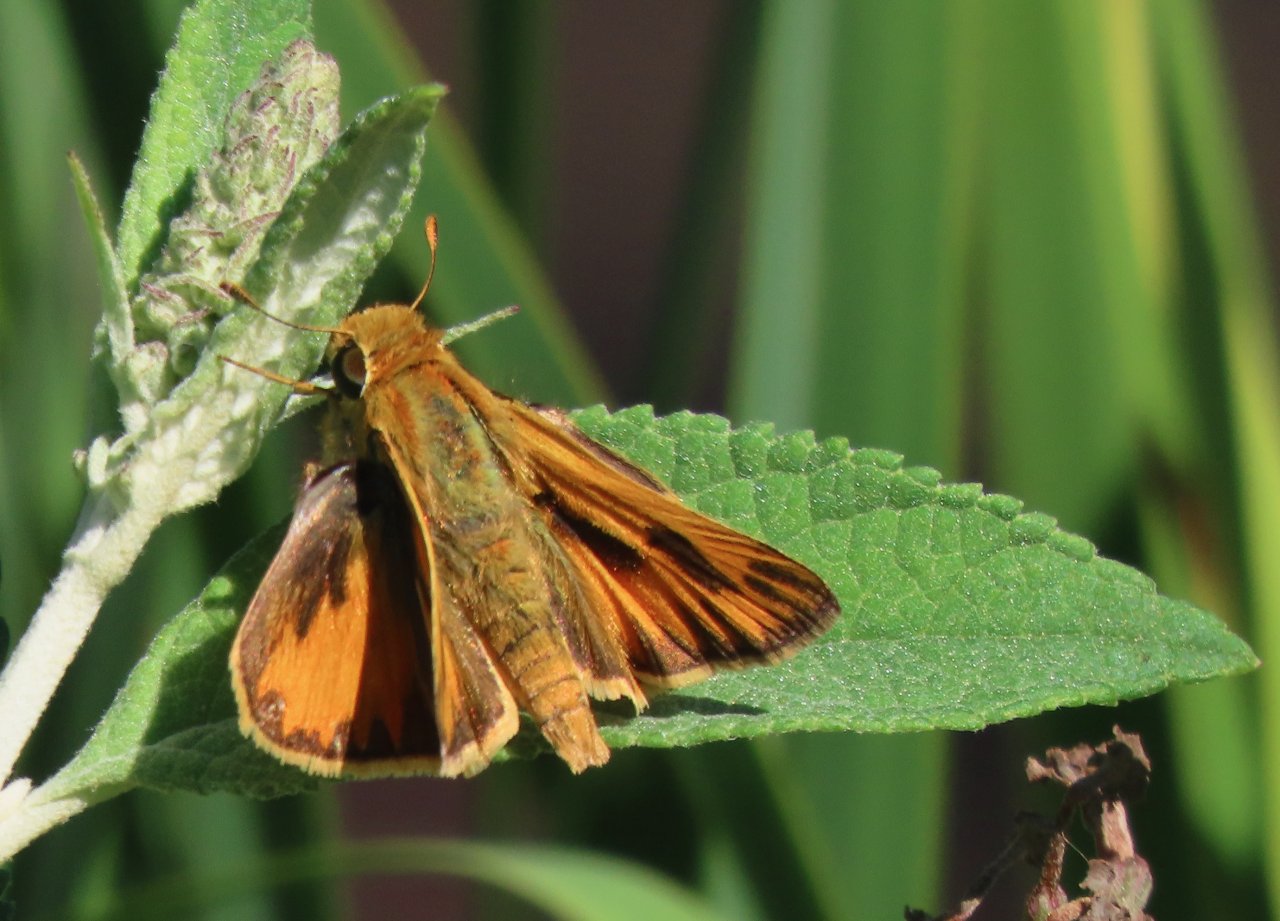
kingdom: Animalia
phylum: Arthropoda
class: Insecta
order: Lepidoptera
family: Hesperiidae
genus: Hylephila
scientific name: Hylephila phyleus
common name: Fiery Skipper
